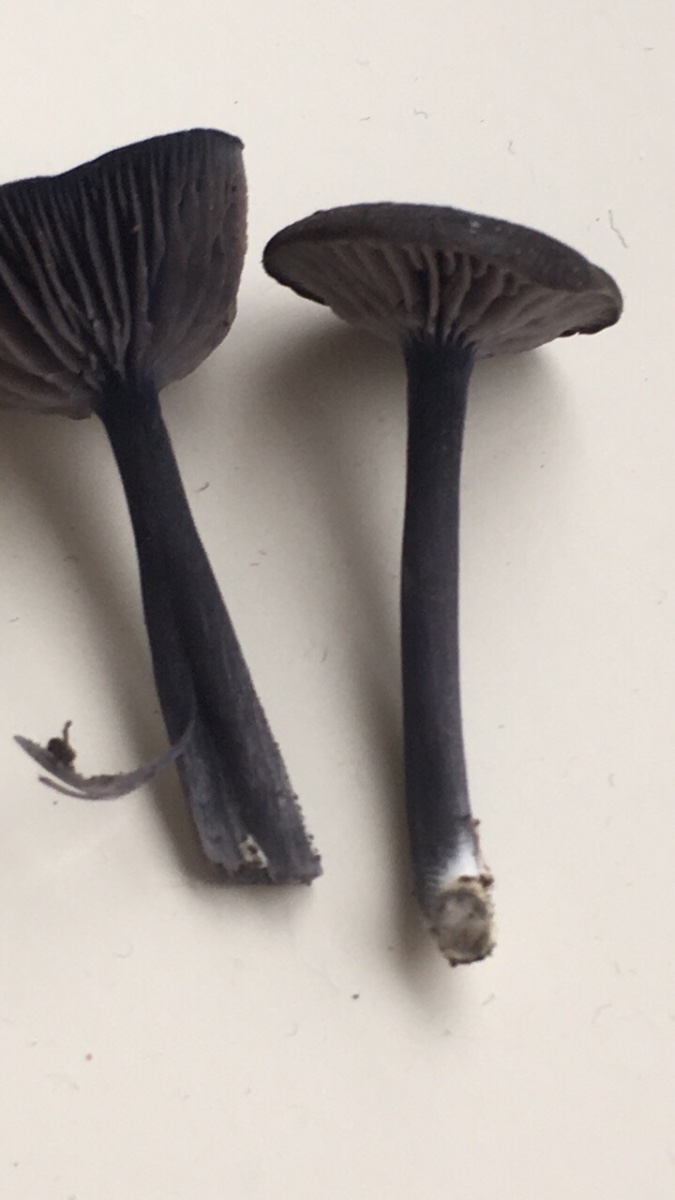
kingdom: Fungi
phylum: Basidiomycota
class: Agaricomycetes
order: Agaricales
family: Entolomataceae
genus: Entoloma
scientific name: Entoloma
